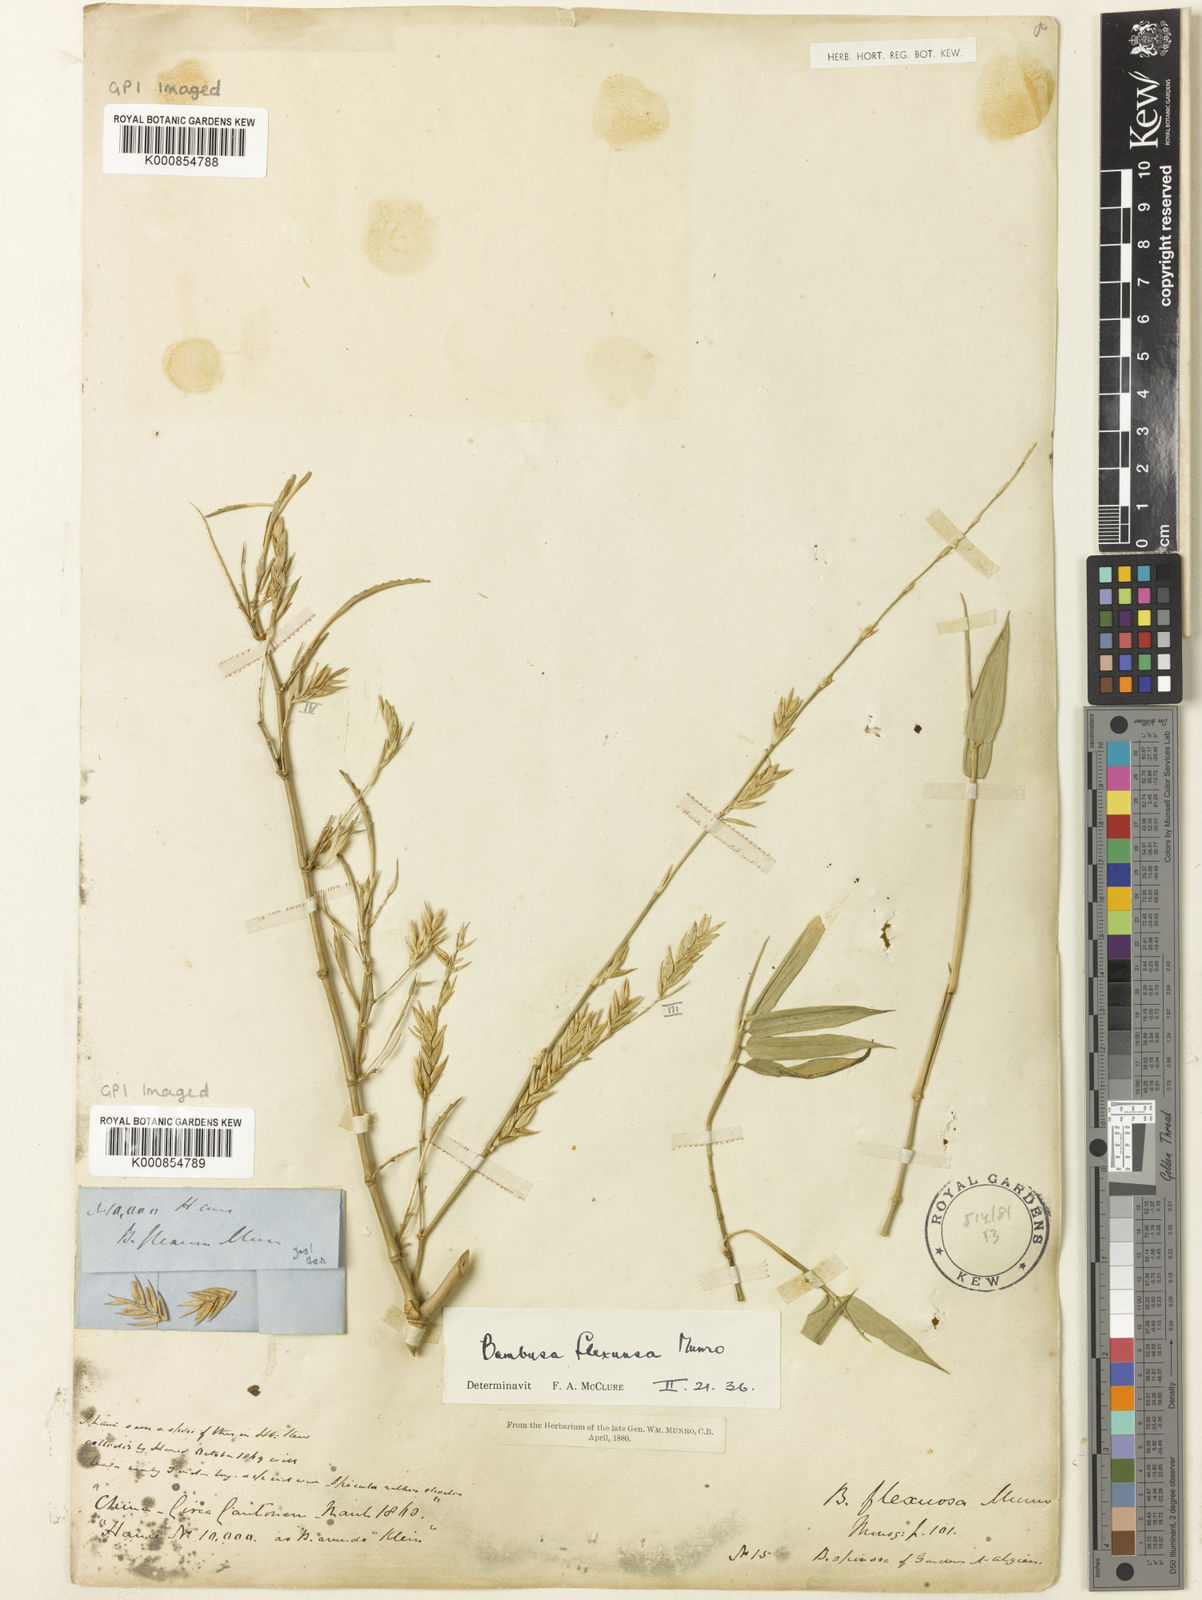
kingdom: Plantae
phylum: Tracheophyta
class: Liliopsida
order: Poales
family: Poaceae
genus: Bambusa
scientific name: Bambusa flexuosa
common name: Lesser thorny bamboo
